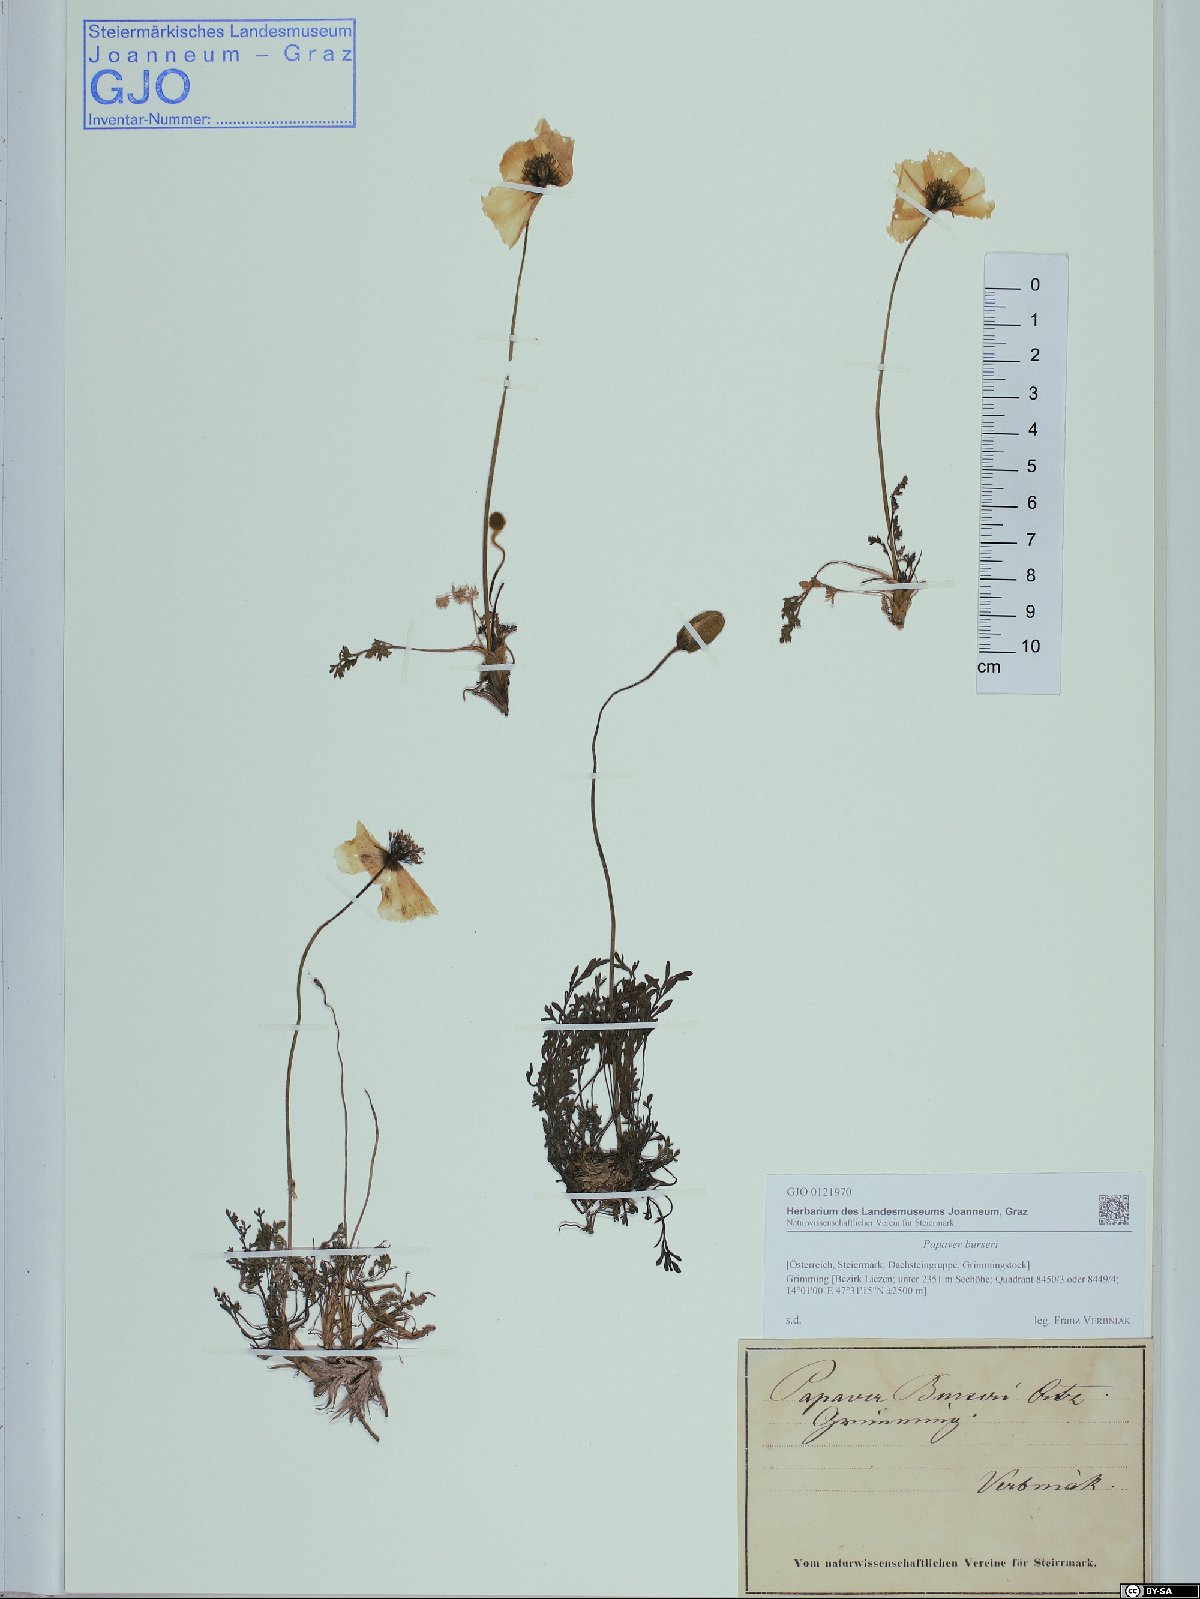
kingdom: Plantae
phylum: Tracheophyta
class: Magnoliopsida
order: Ranunculales
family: Papaveraceae
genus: Papaver
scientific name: Papaver alpinum
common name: Austrian poppy
